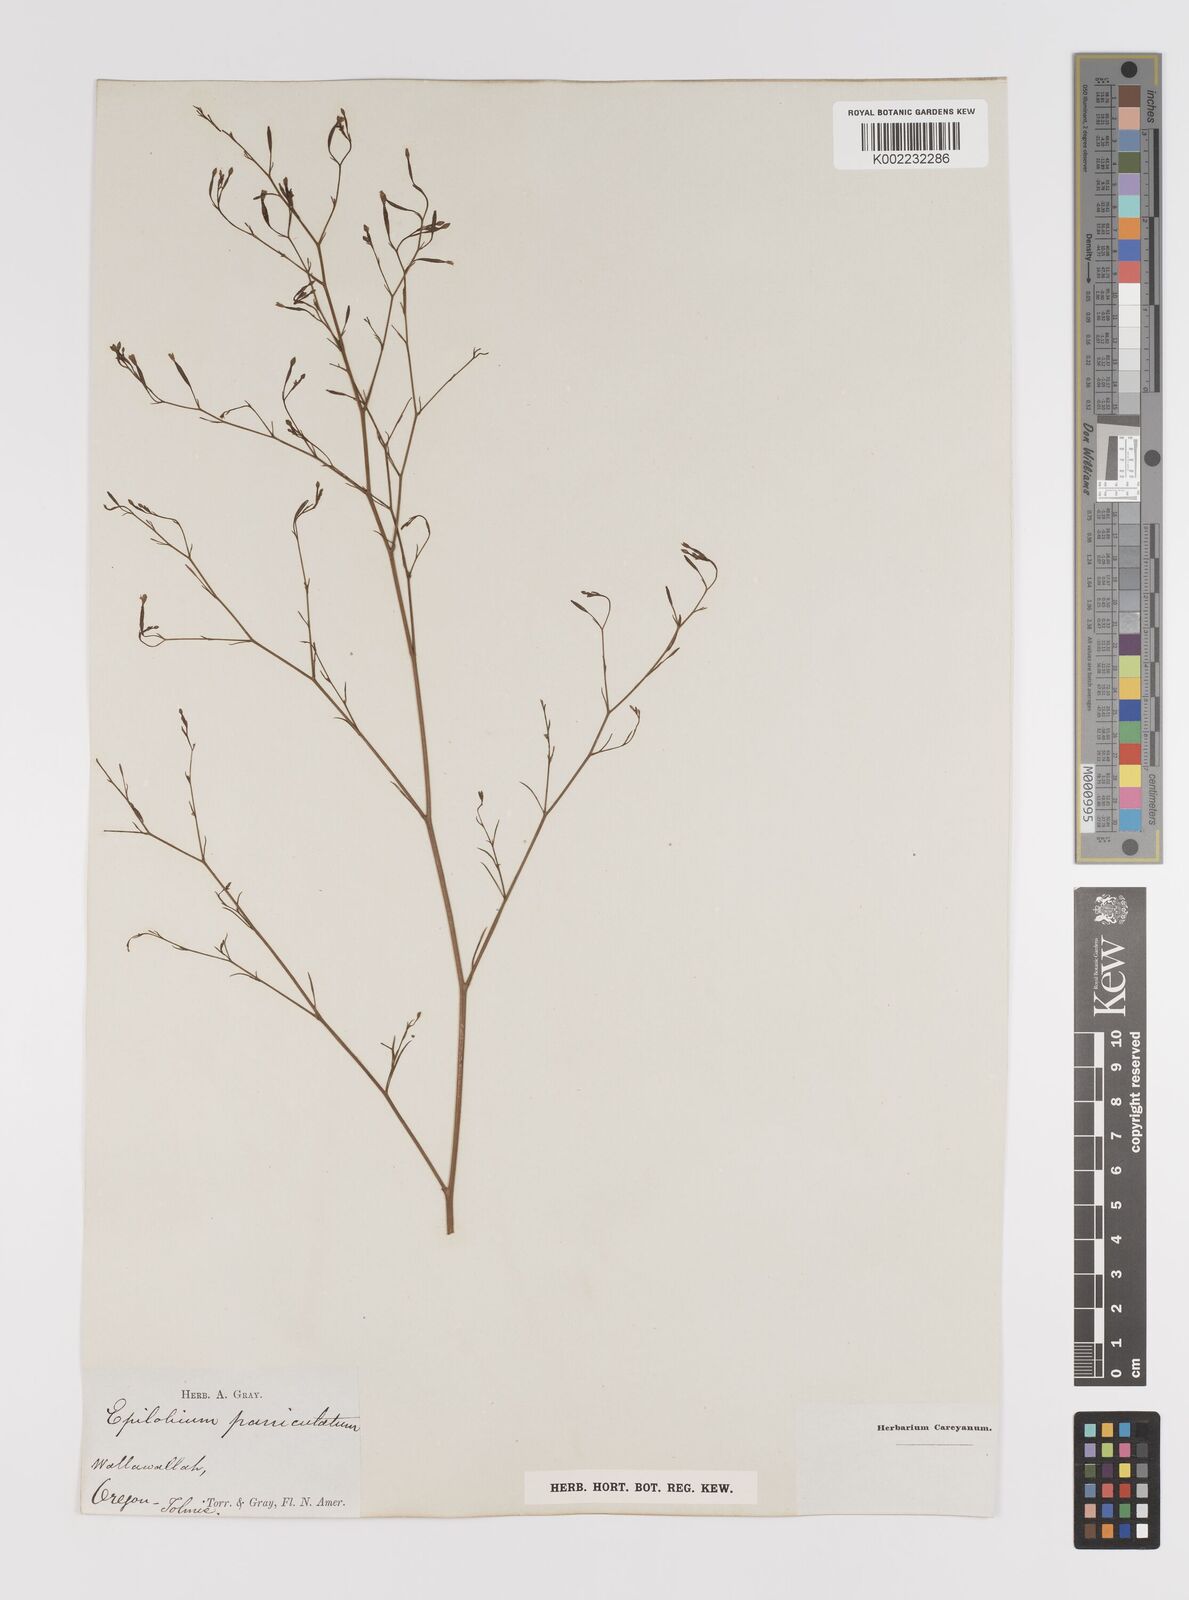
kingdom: Plantae
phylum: Tracheophyta
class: Magnoliopsida
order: Myrtales
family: Onagraceae
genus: Epilobium
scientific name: Epilobium
